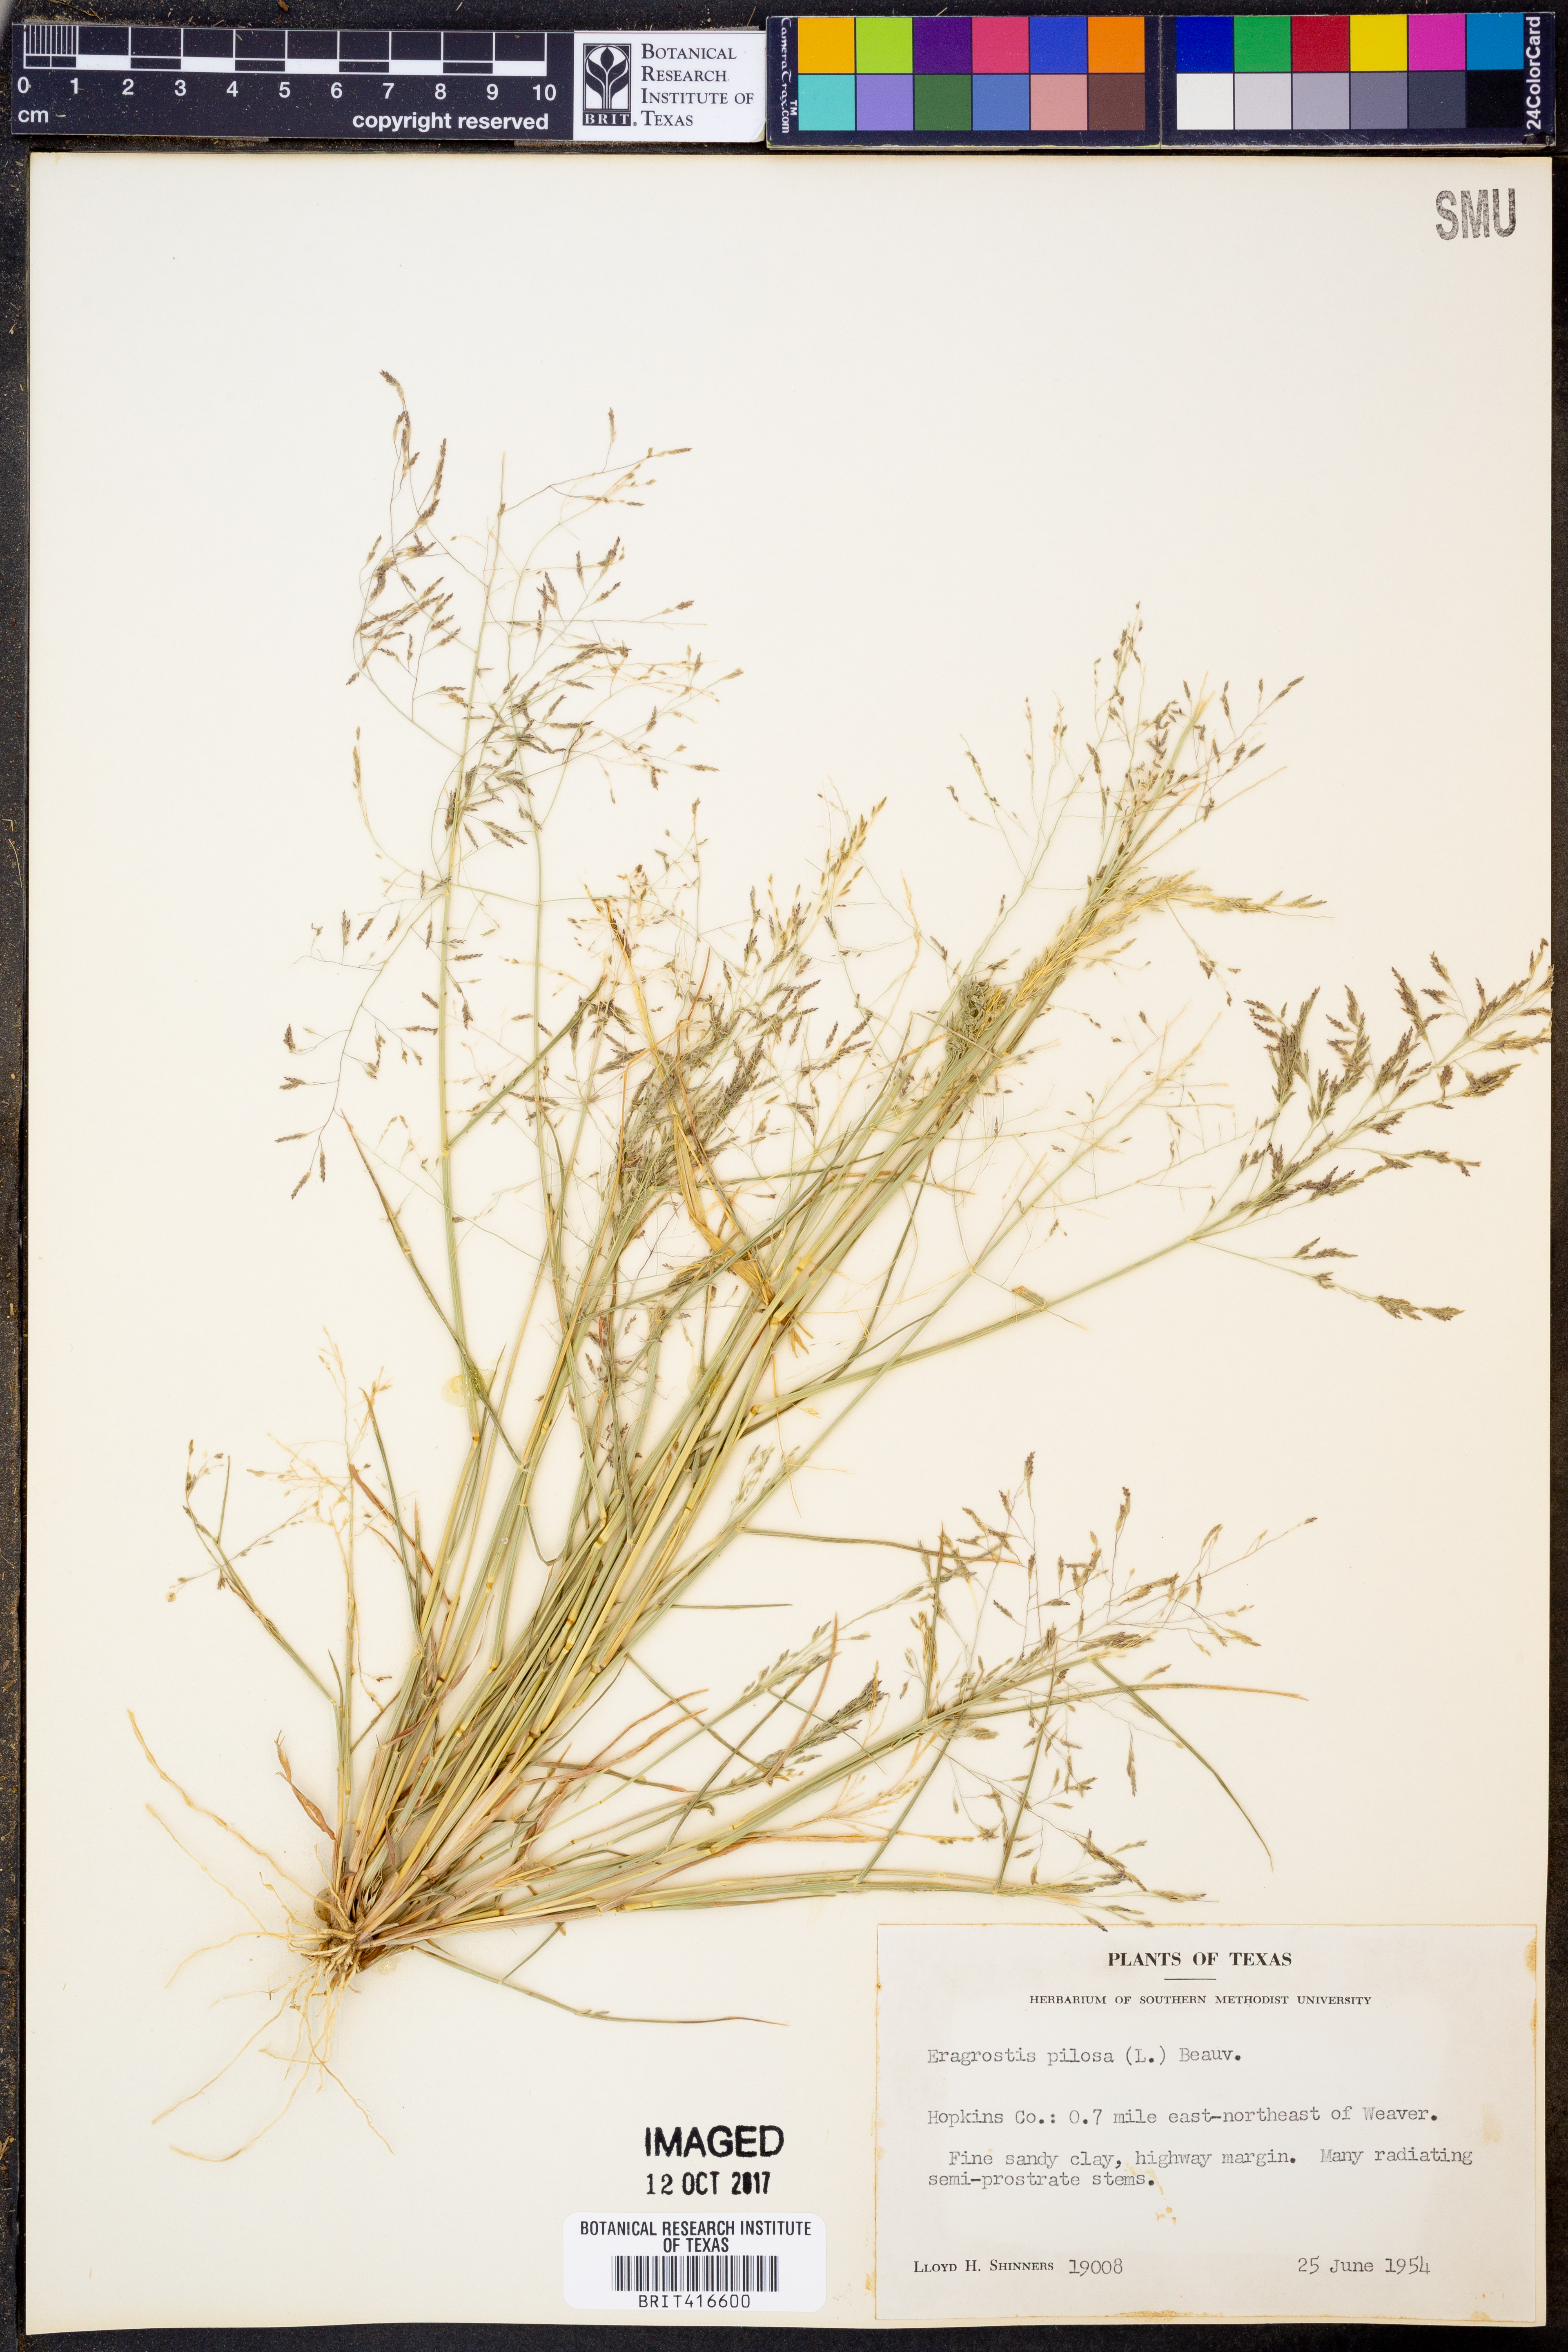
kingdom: Plantae
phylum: Tracheophyta
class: Liliopsida
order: Poales
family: Poaceae
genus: Eragrostis
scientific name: Eragrostis pilosa
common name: Indian lovegrass
